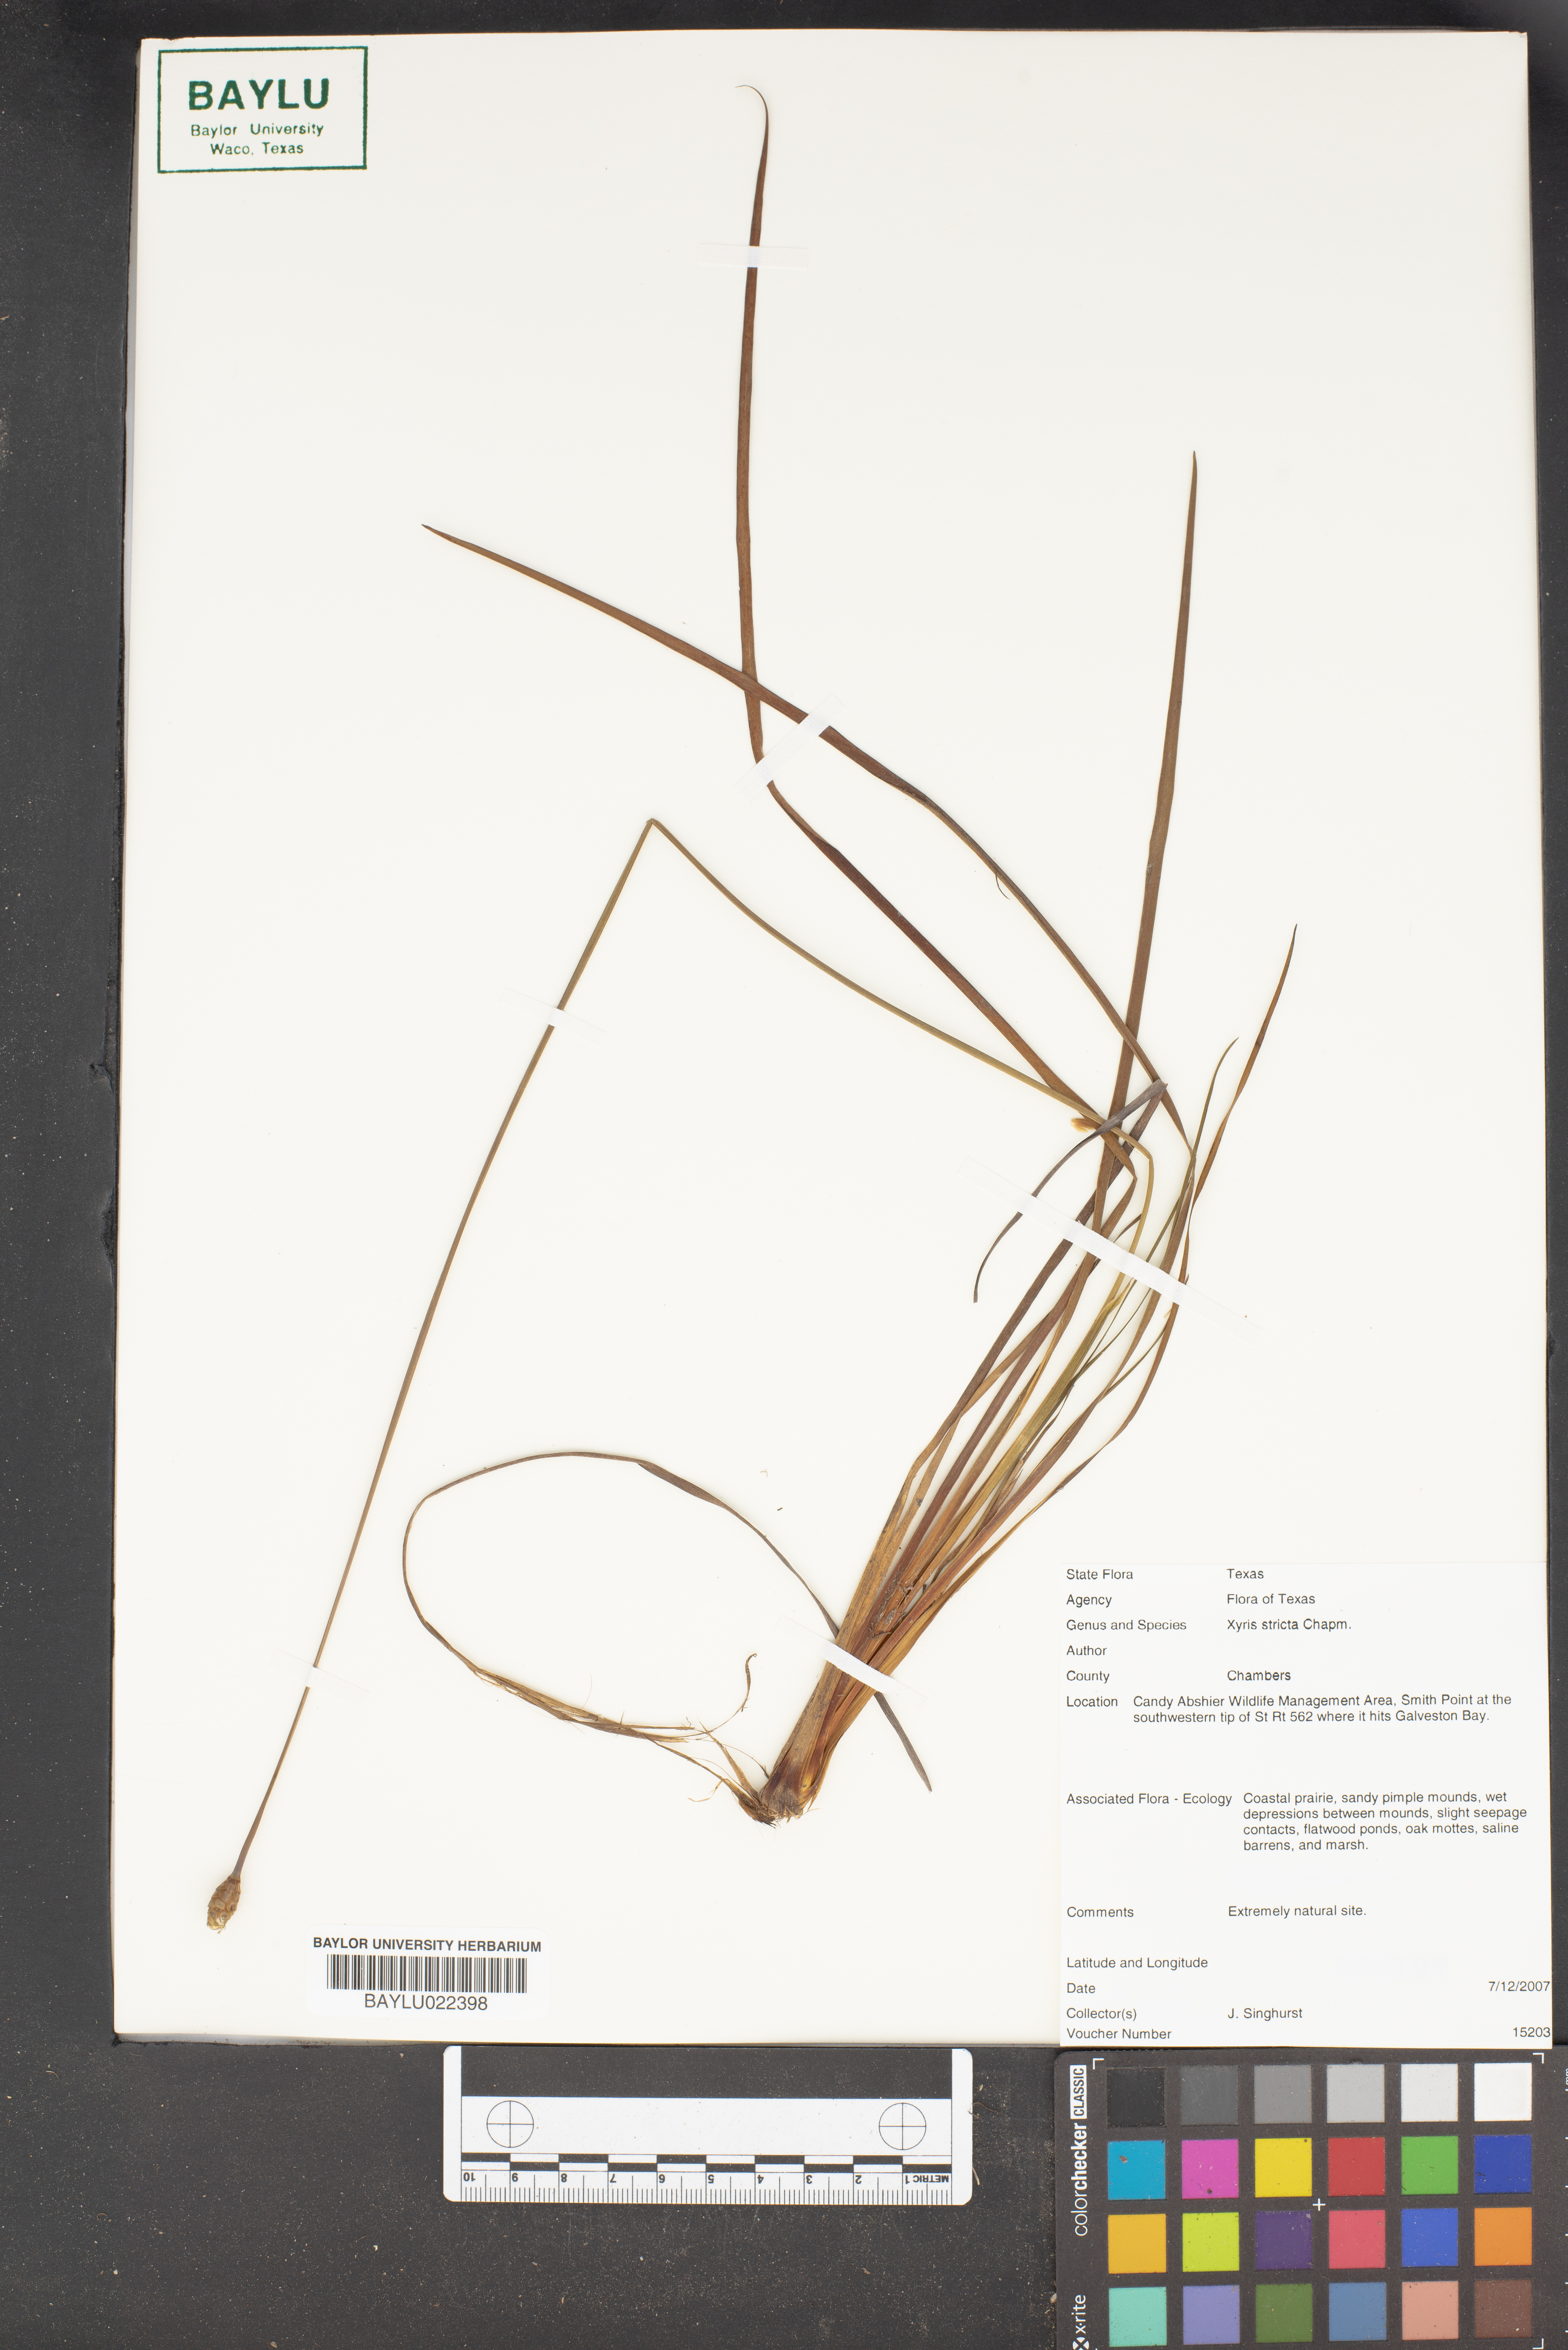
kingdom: Plantae
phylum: Tracheophyta
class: Liliopsida
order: Poales
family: Xyridaceae
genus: Xyris
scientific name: Xyris stricta
